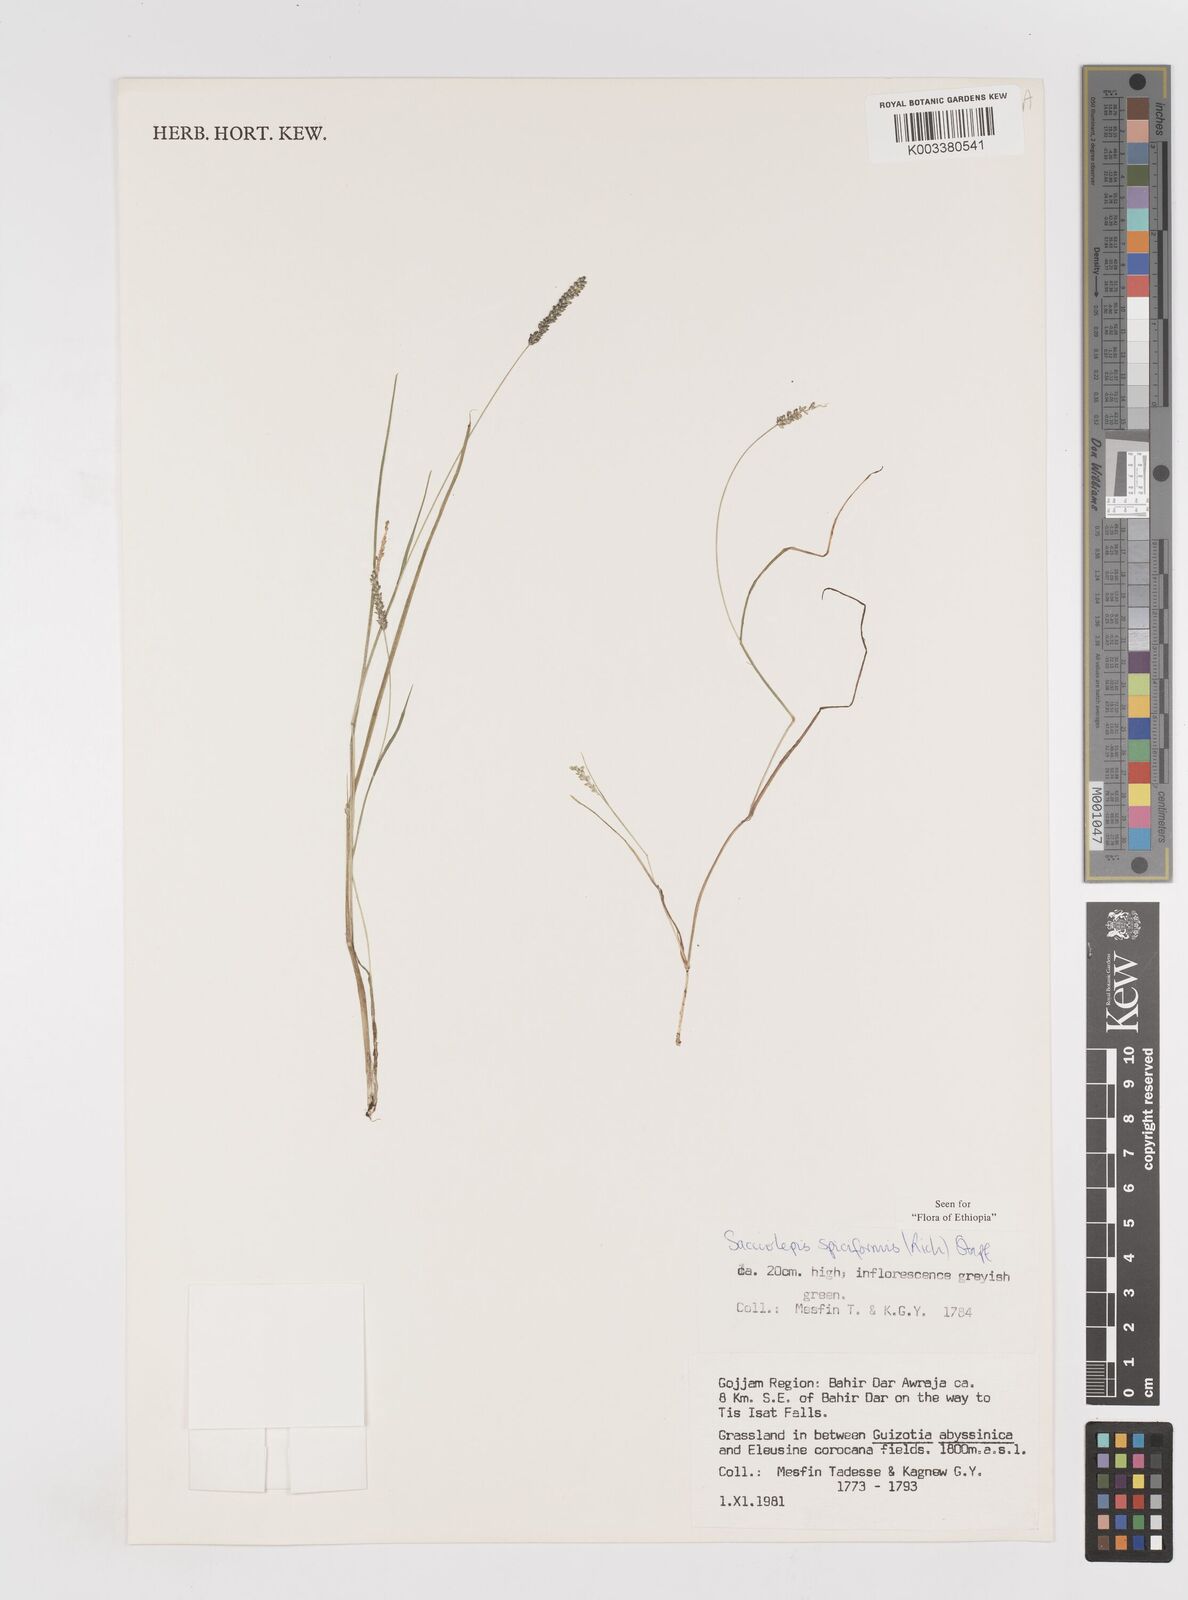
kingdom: Plantae
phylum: Tracheophyta
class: Liliopsida
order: Poales
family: Poaceae
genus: Sacciolepis
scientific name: Sacciolepis myosuroides
